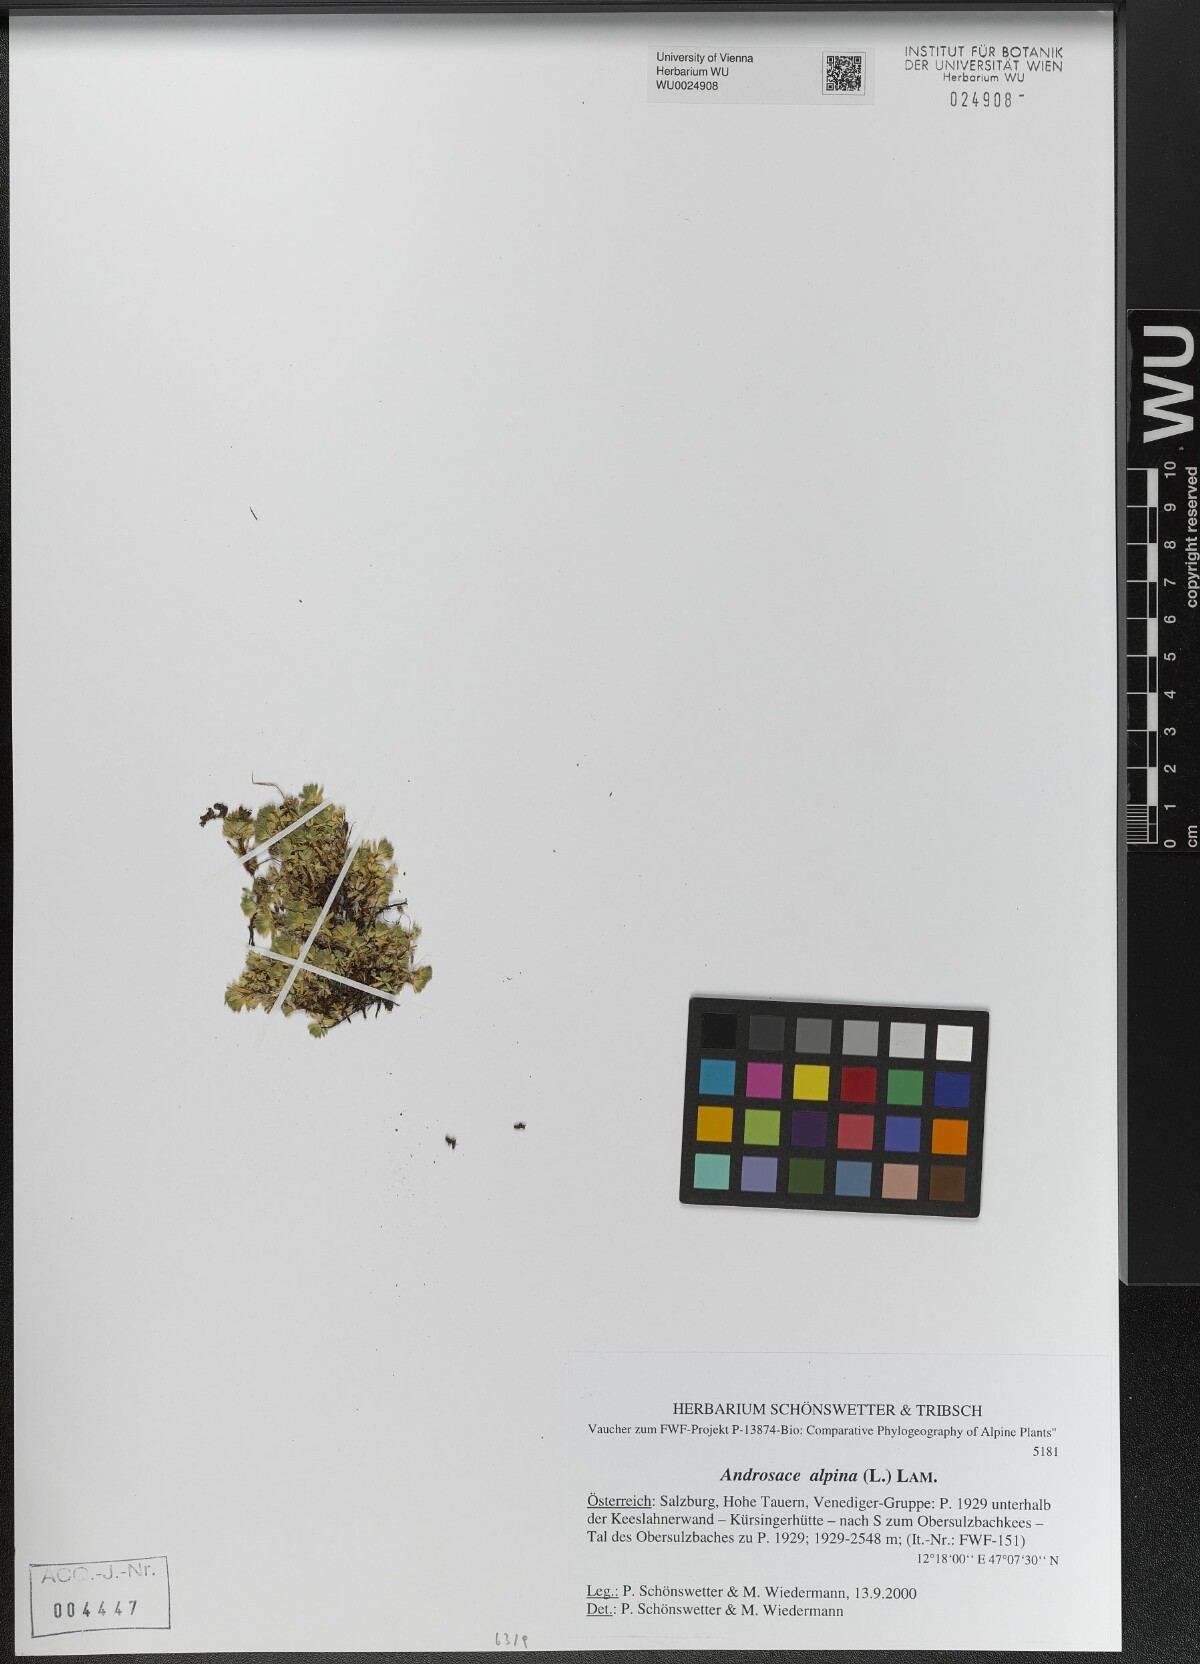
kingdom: Plantae
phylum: Tracheophyta
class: Magnoliopsida
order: Ericales
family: Primulaceae
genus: Androsace
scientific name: Androsace alpina
